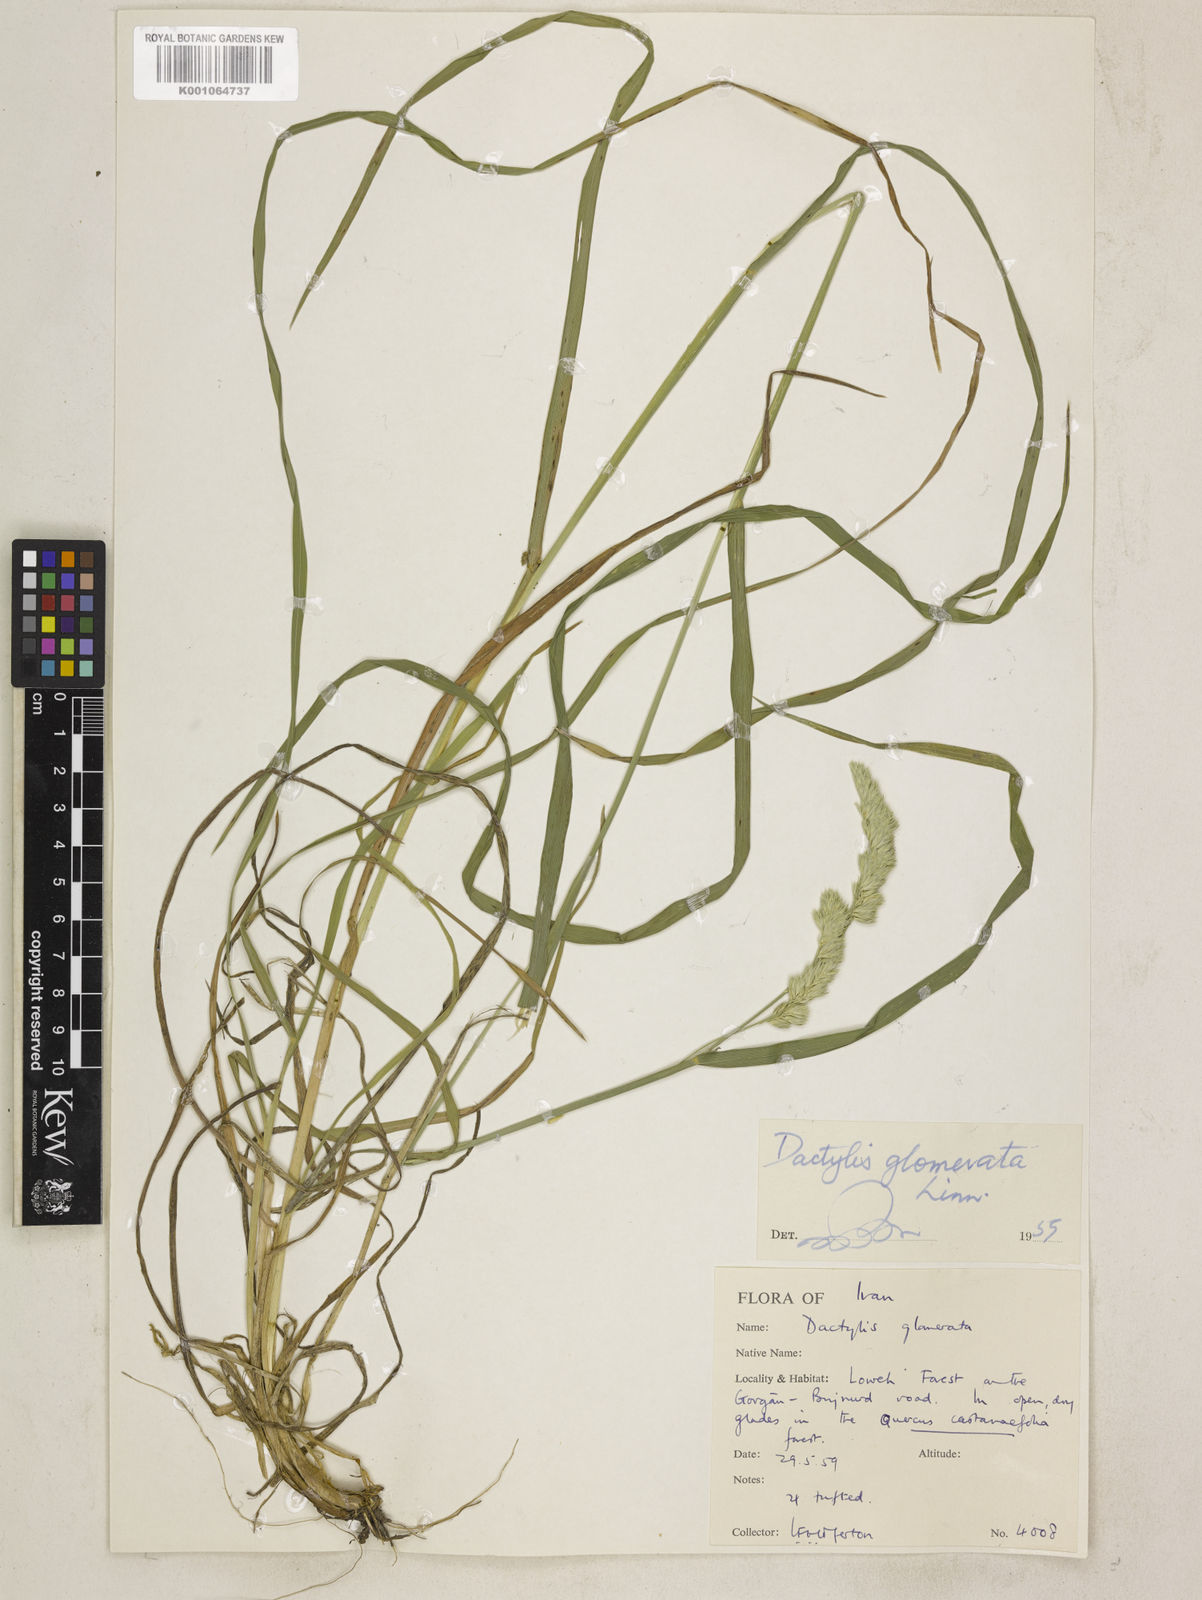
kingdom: Plantae
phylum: Tracheophyta
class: Liliopsida
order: Poales
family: Poaceae
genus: Dactylis
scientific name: Dactylis glomerata
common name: Orchardgrass
